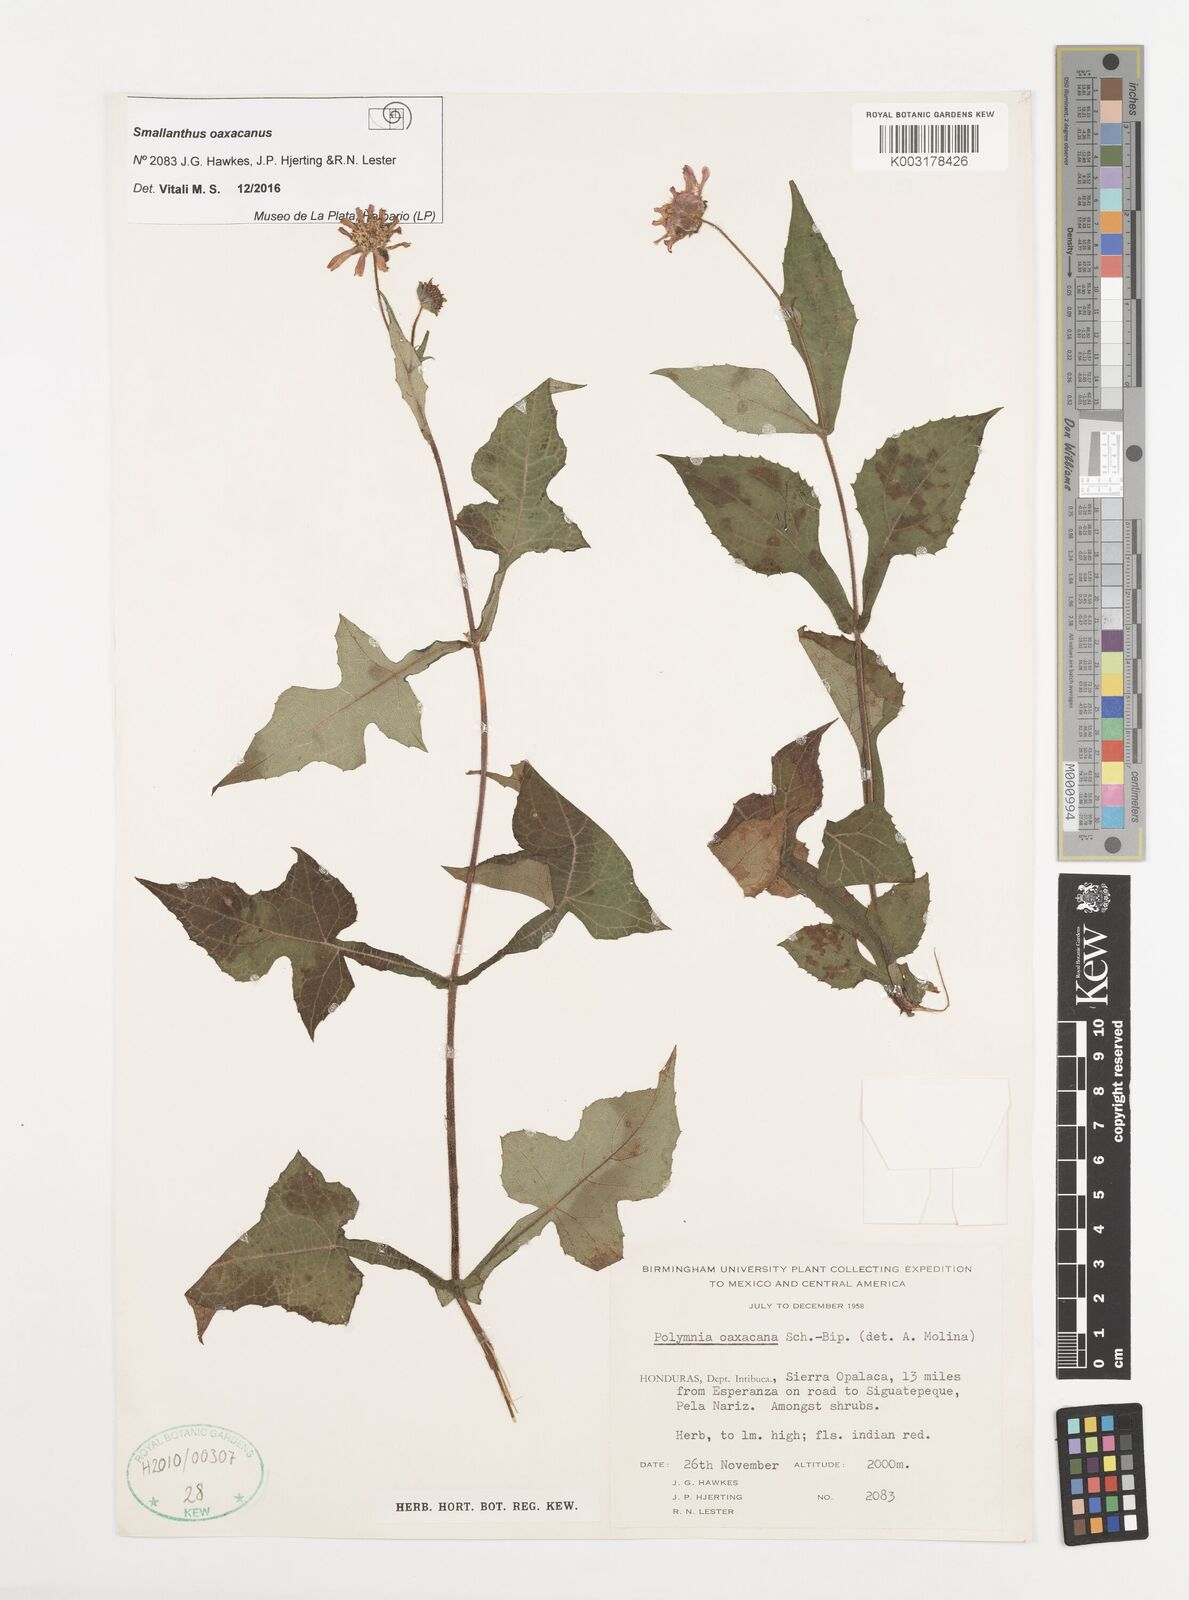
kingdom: Plantae
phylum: Tracheophyta
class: Magnoliopsida
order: Asterales
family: Asteraceae
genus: Smallanthus
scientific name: Smallanthus oaxacanus
